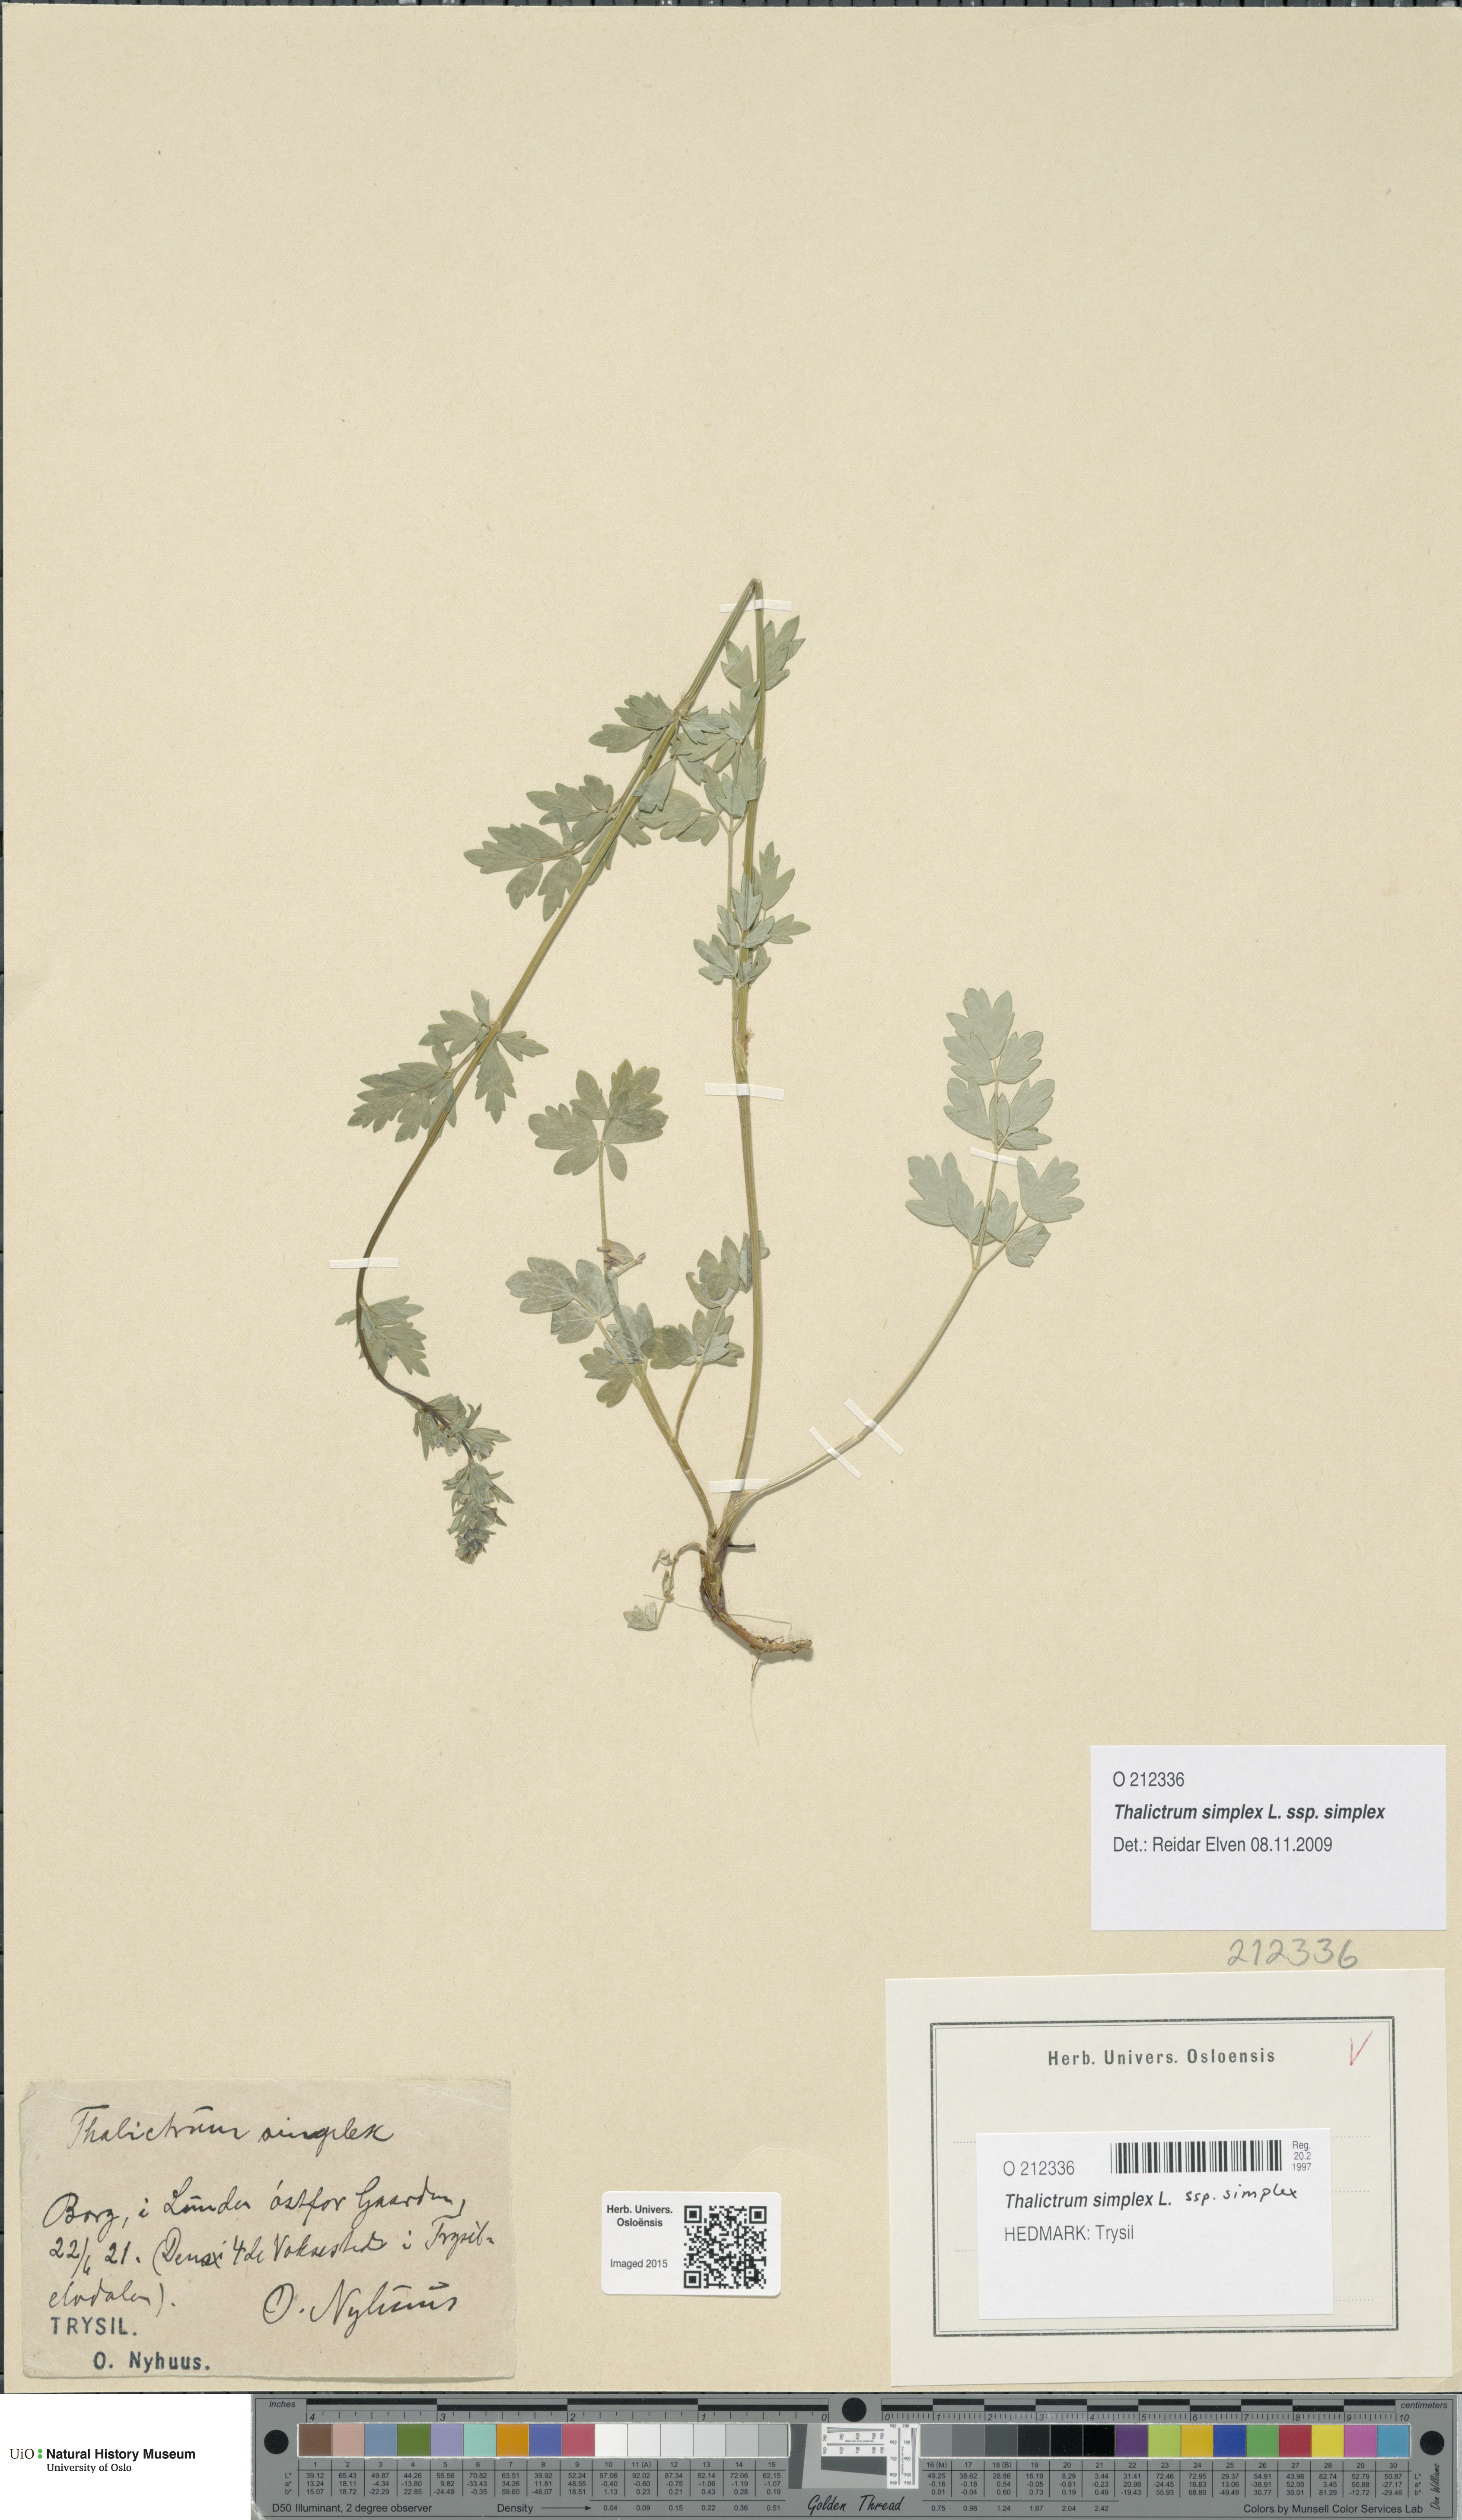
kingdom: Plantae
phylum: Tracheophyta
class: Magnoliopsida
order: Ranunculales
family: Ranunculaceae
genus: Thalictrum
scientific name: Thalictrum simplex
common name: Small meadow-rue
